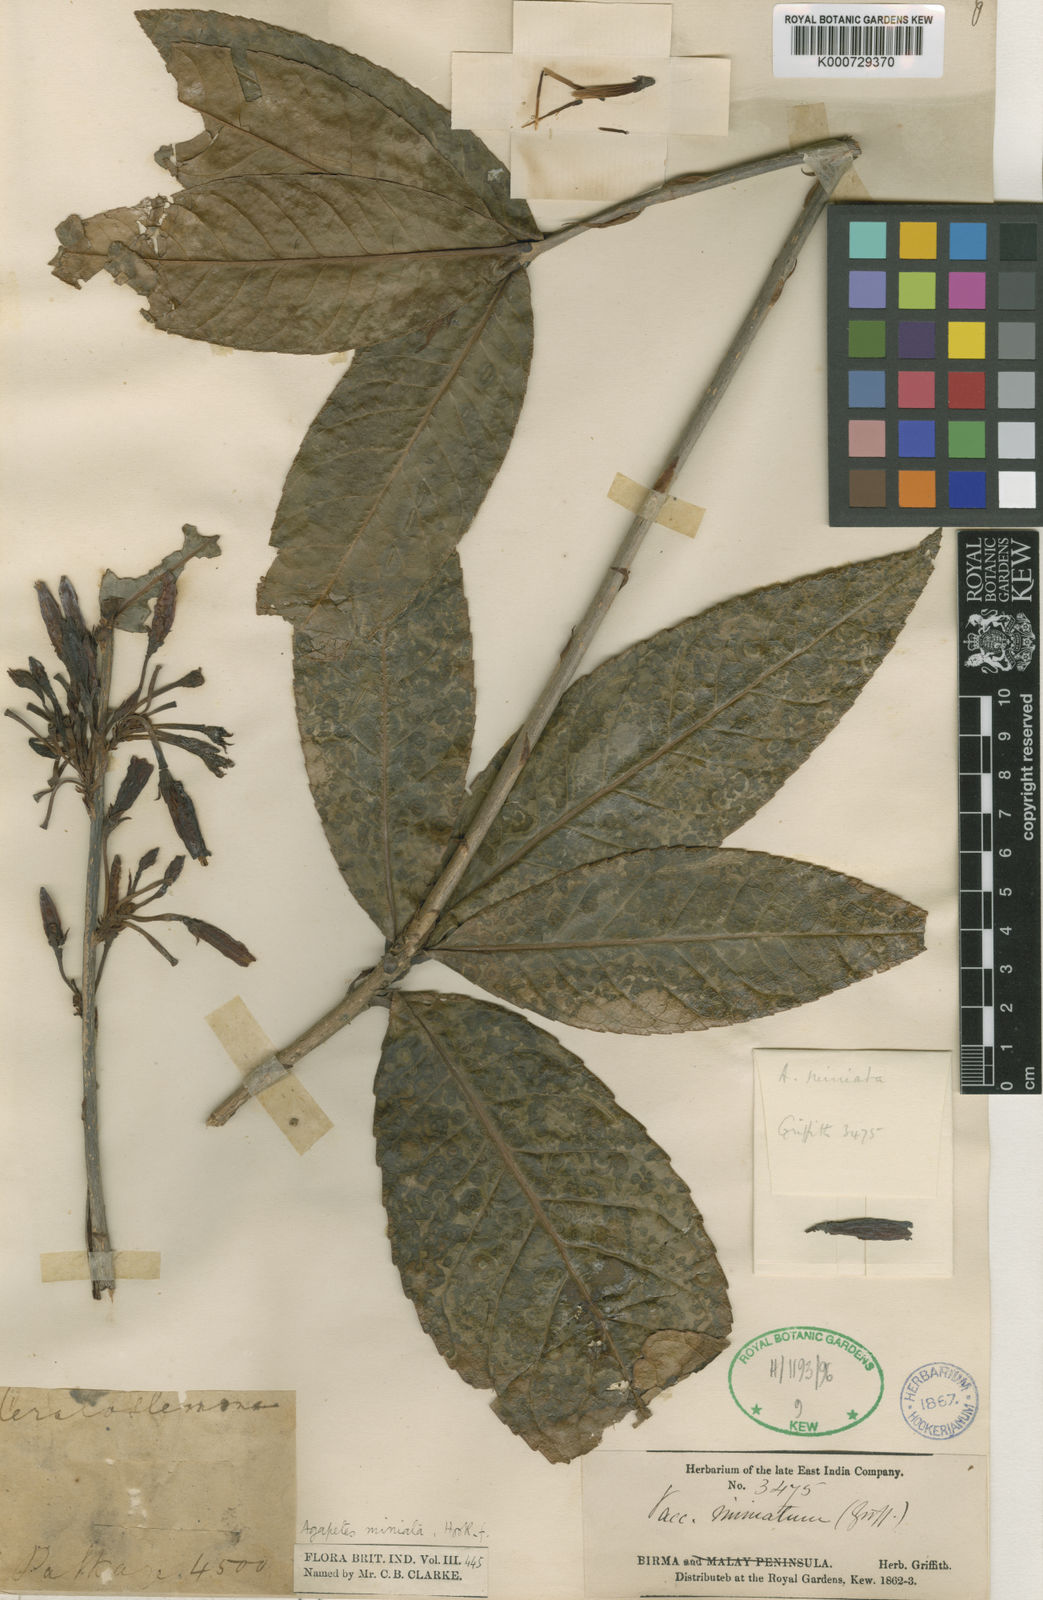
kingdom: Plantae
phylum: Tracheophyta
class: Magnoliopsida
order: Ericales
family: Ericaceae
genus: Agapetes
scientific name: Agapetes miniata
